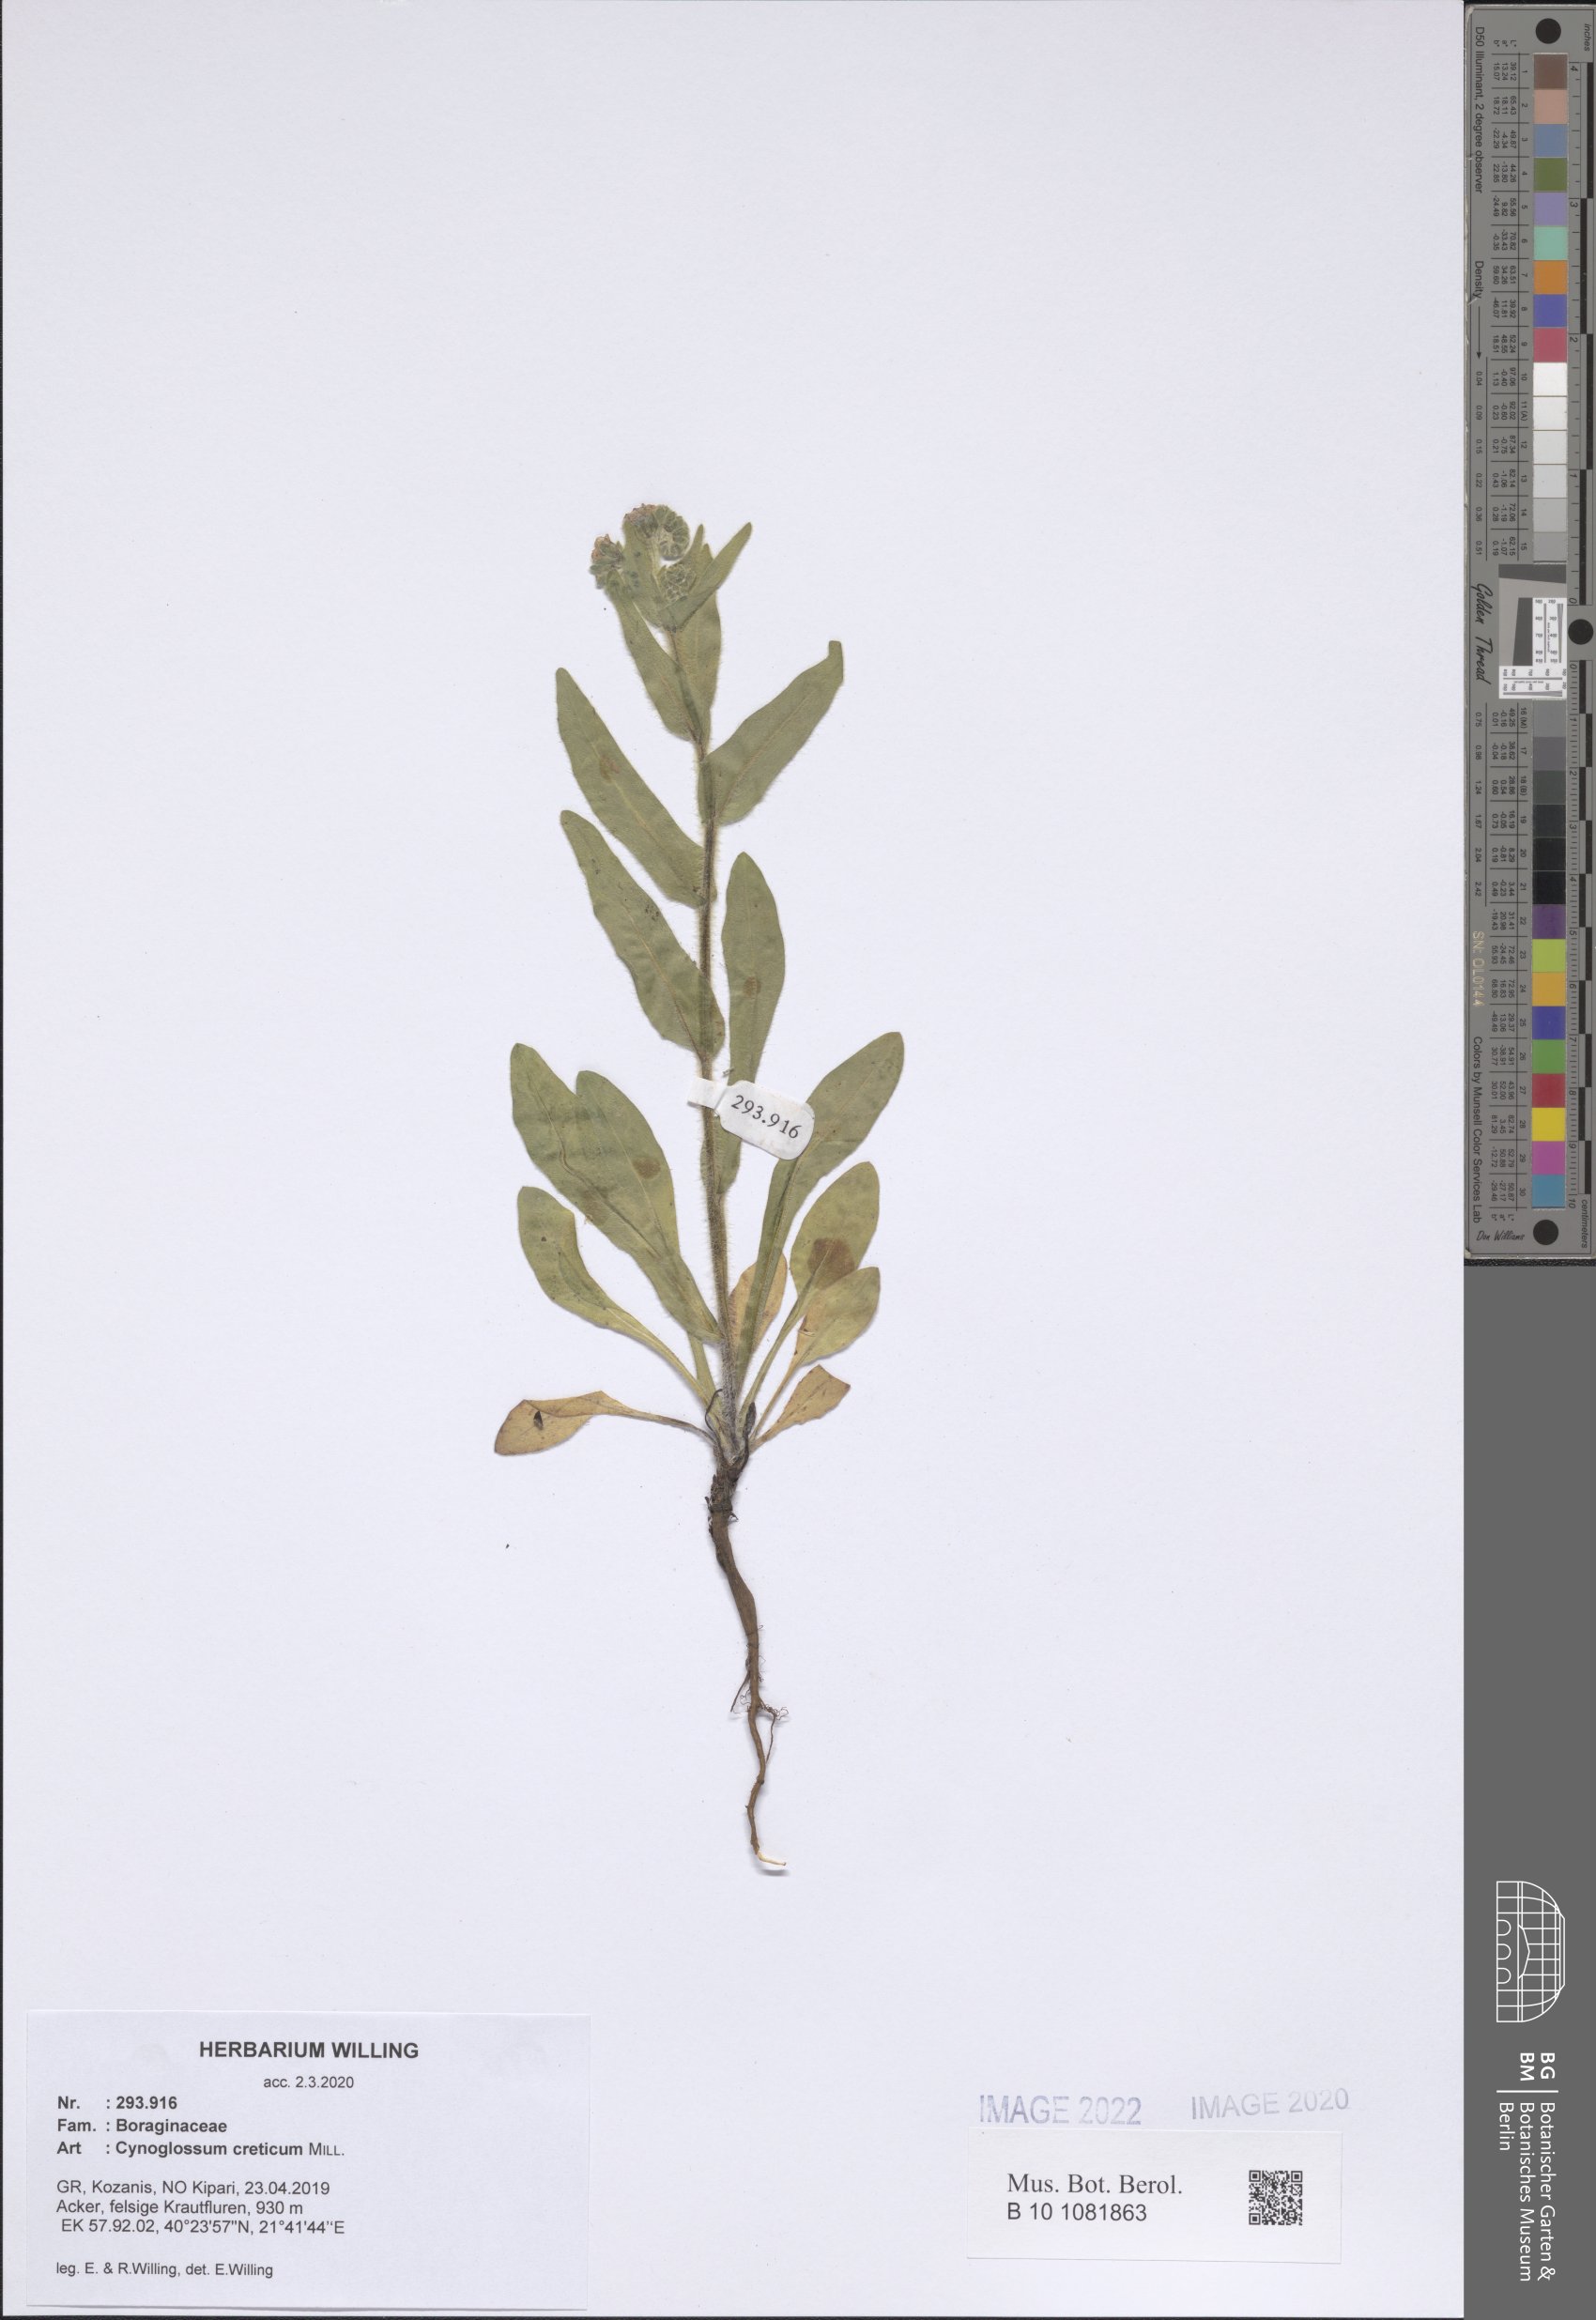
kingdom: Plantae
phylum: Tracheophyta
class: Magnoliopsida
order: Boraginales
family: Boraginaceae
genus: Cynoglossum
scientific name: Cynoglossum creticum
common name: Blue hound's tongue
